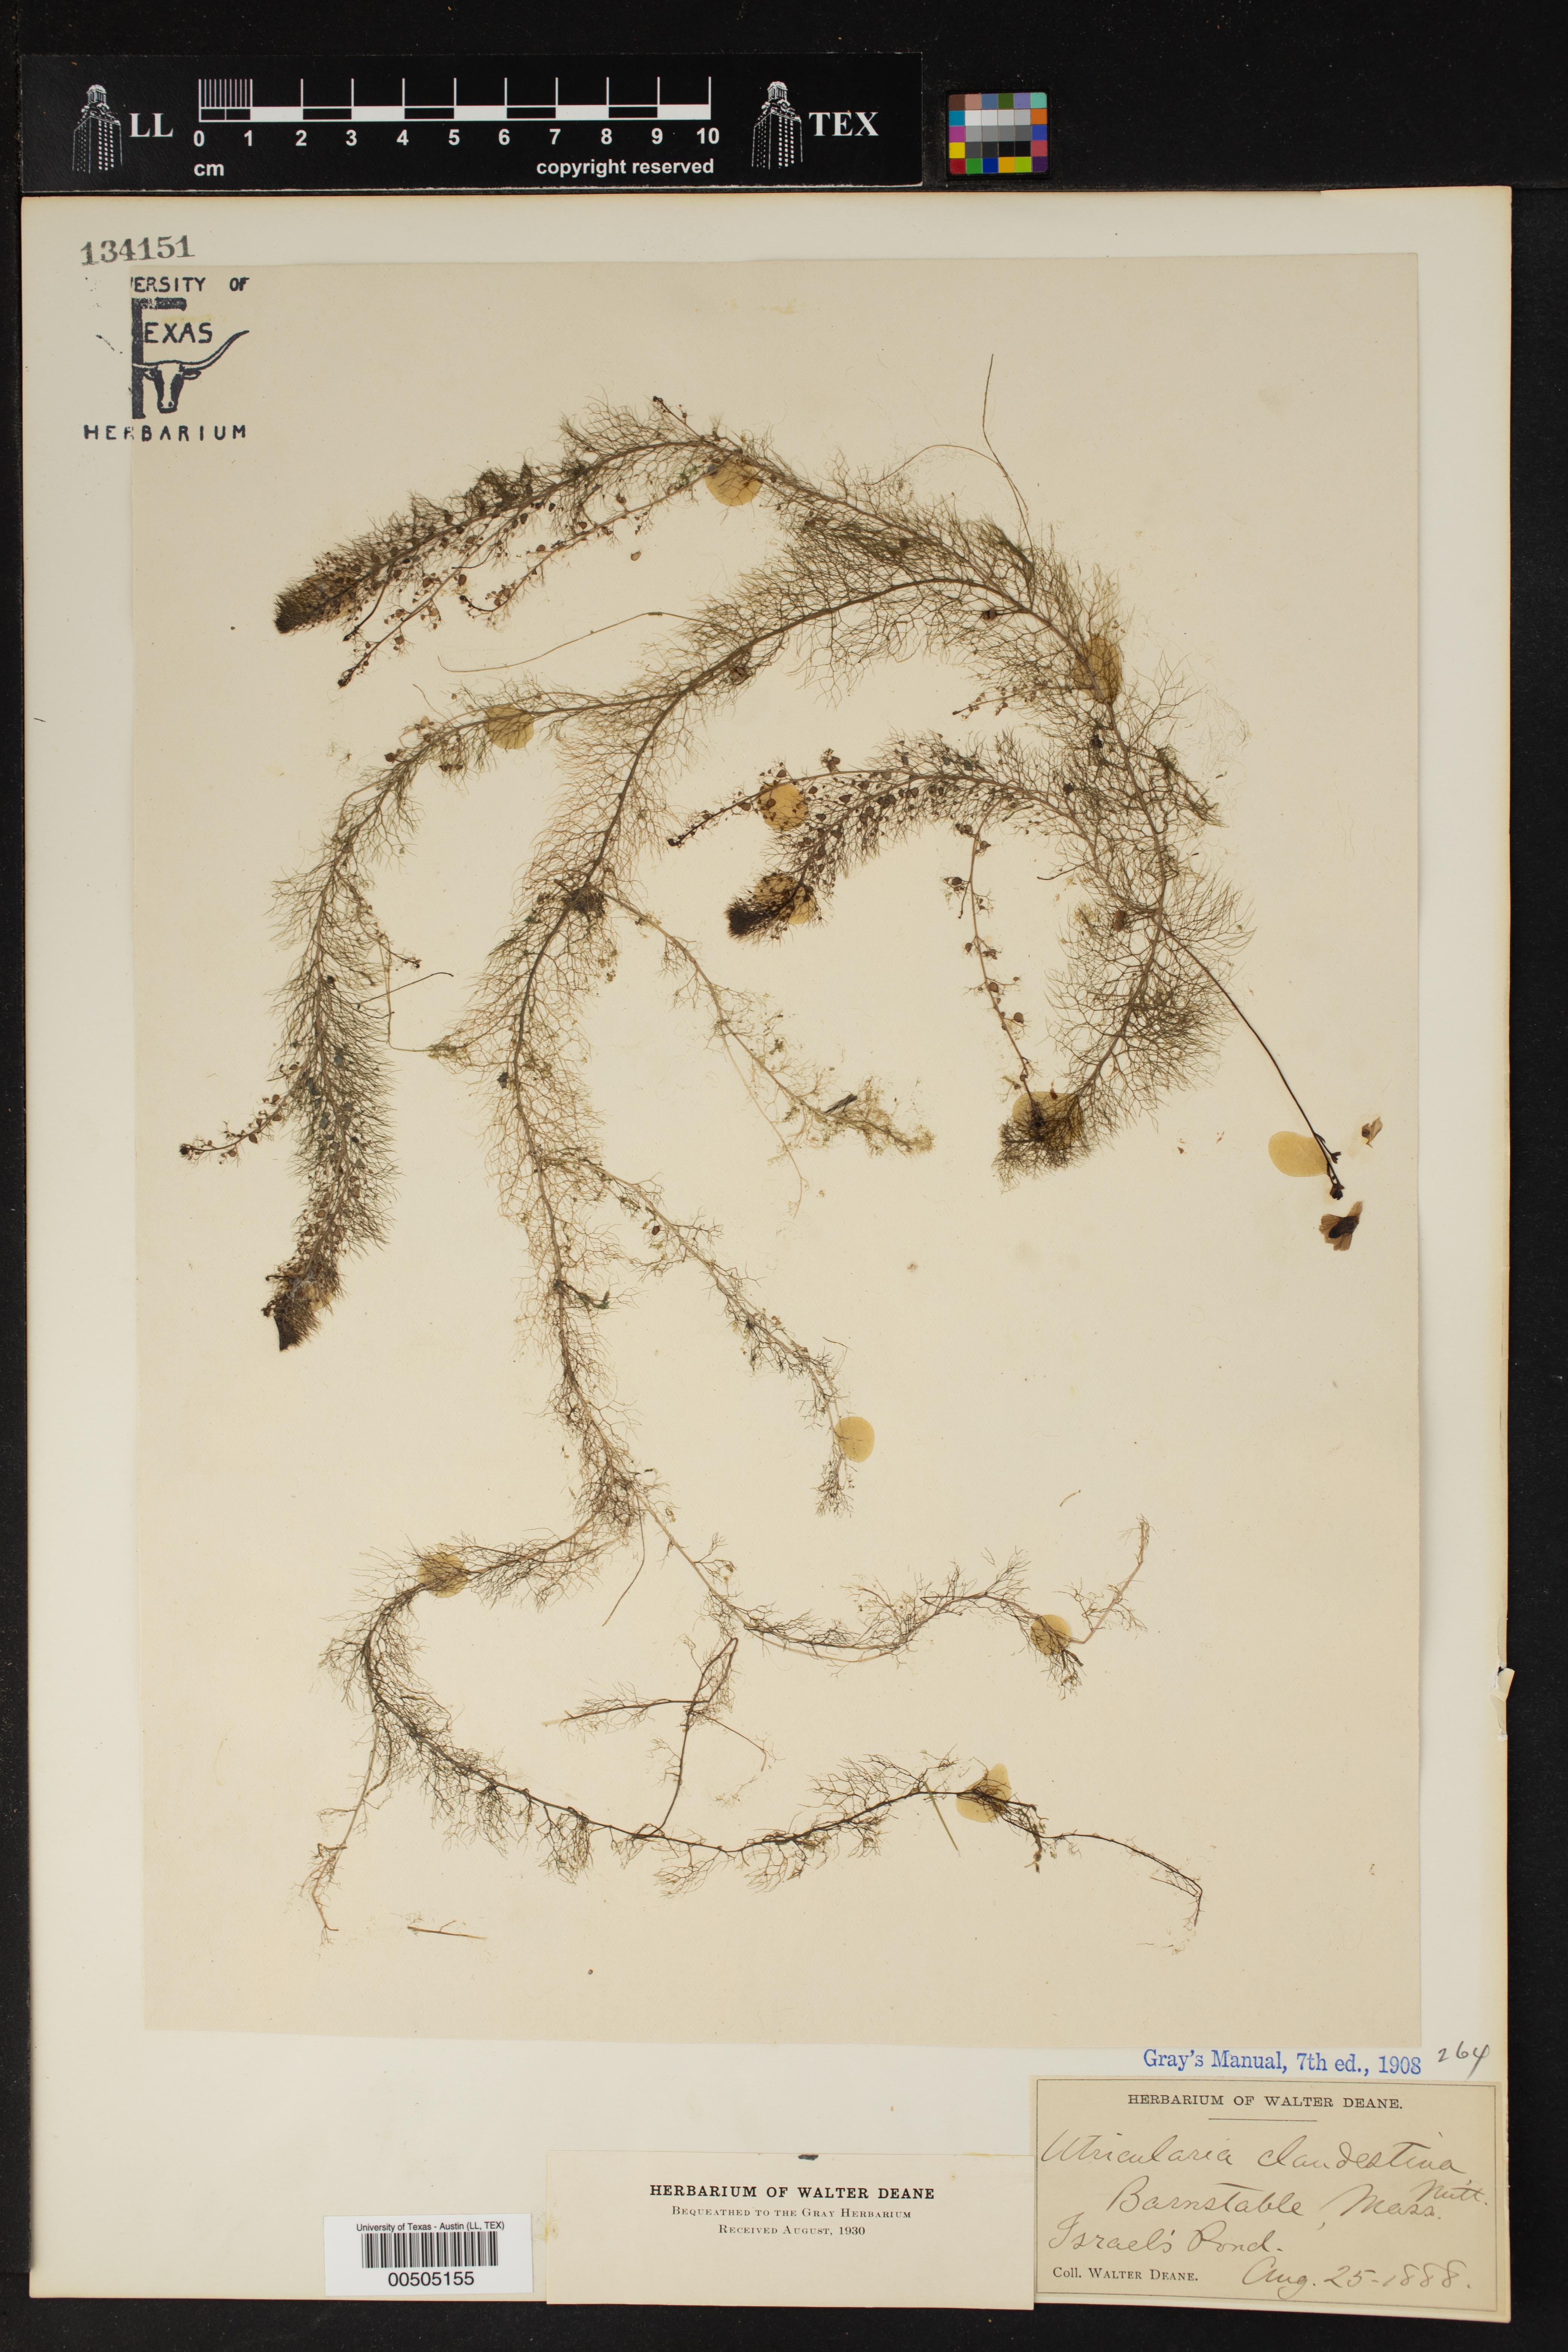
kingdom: Plantae
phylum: Tracheophyta
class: Magnoliopsida
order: Lamiales
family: Lentibulariaceae
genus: Utricularia
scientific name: Utricularia geminiscapa
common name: Hidden-fruit bladderwort
